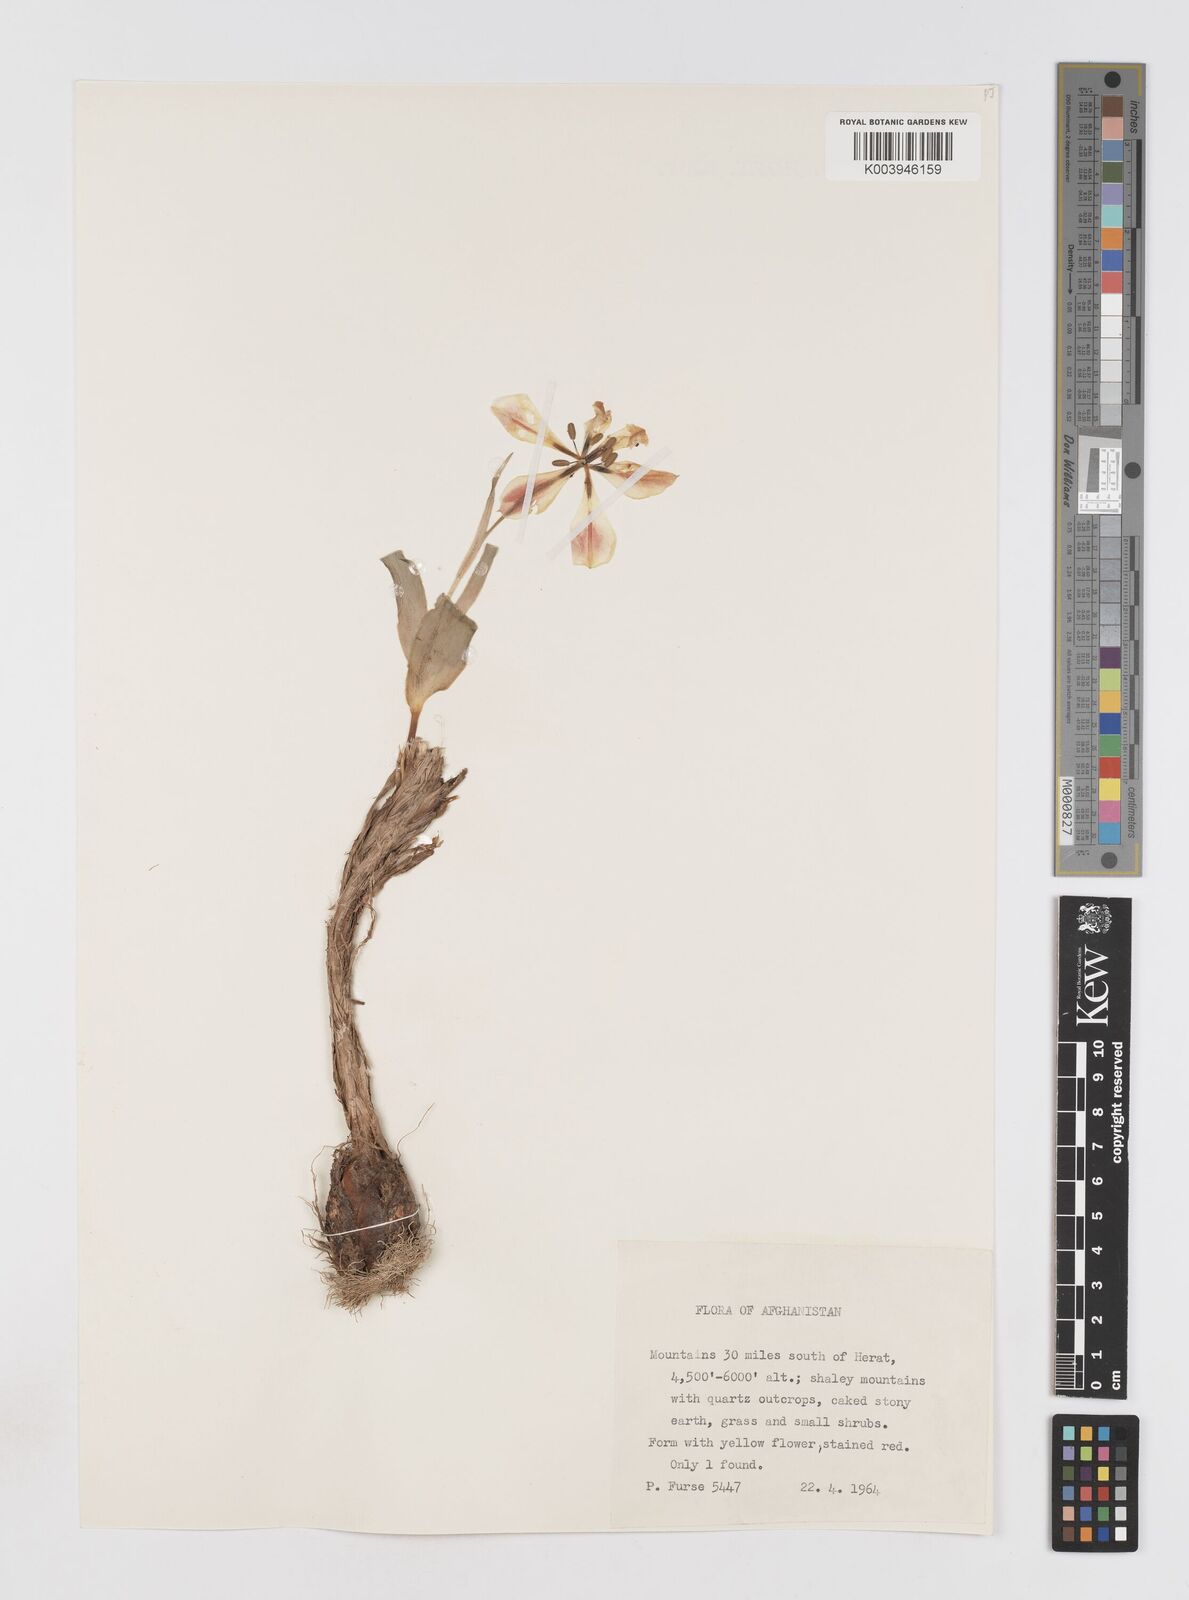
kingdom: Plantae
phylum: Tracheophyta
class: Liliopsida
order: Liliales
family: Liliaceae
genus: Tulipa
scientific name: Tulipa borszczowii
